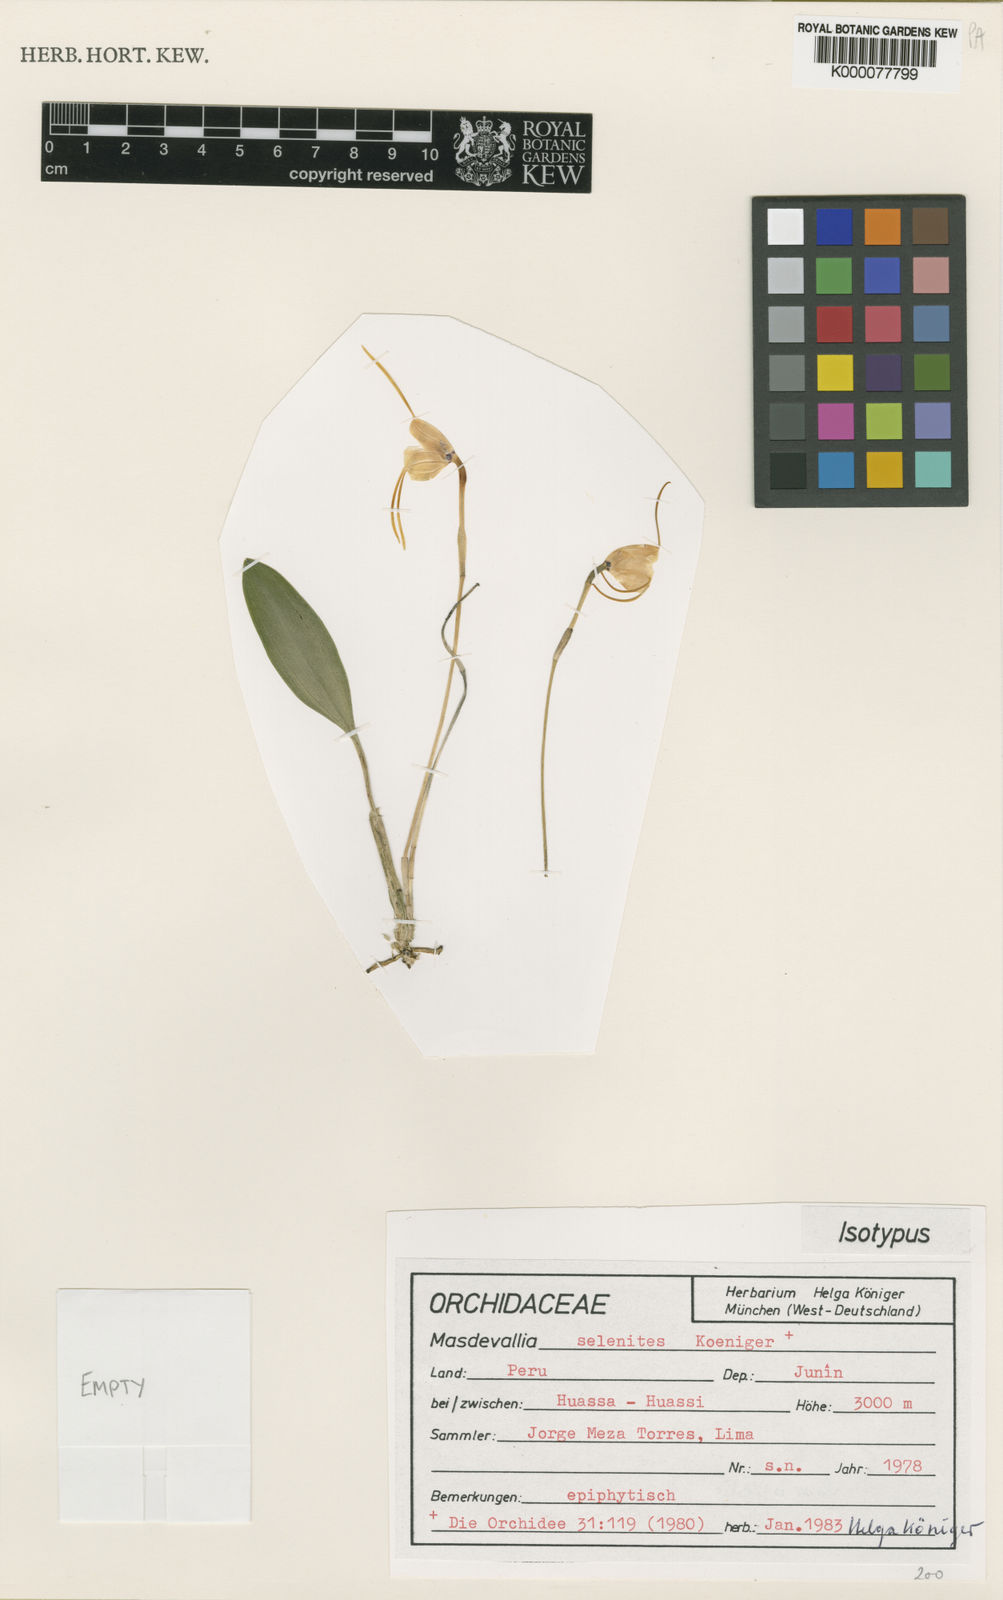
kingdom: Plantae
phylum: Tracheophyta
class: Liliopsida
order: Asparagales
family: Orchidaceae
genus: Masdevallia
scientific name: Masdevallia
